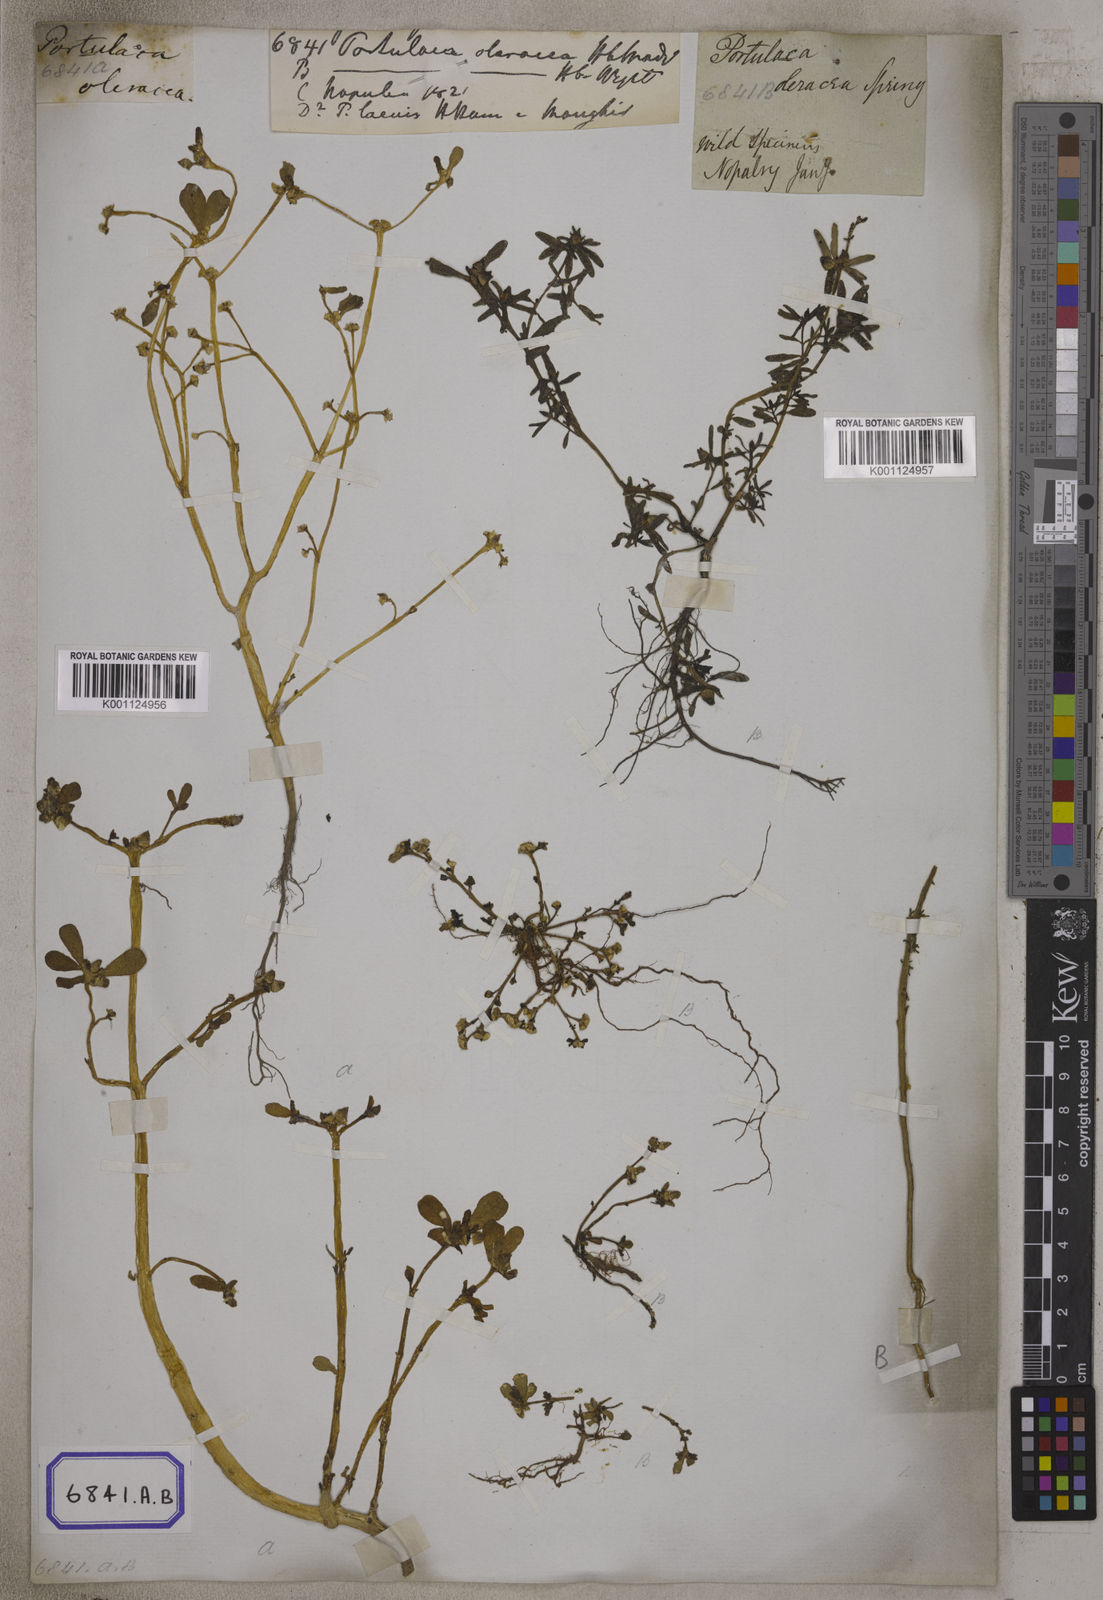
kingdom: Plantae
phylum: Tracheophyta
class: Magnoliopsida
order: Caryophyllales
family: Portulacaceae
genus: Portulaca
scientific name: Portulaca oleracea
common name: Common purslane
